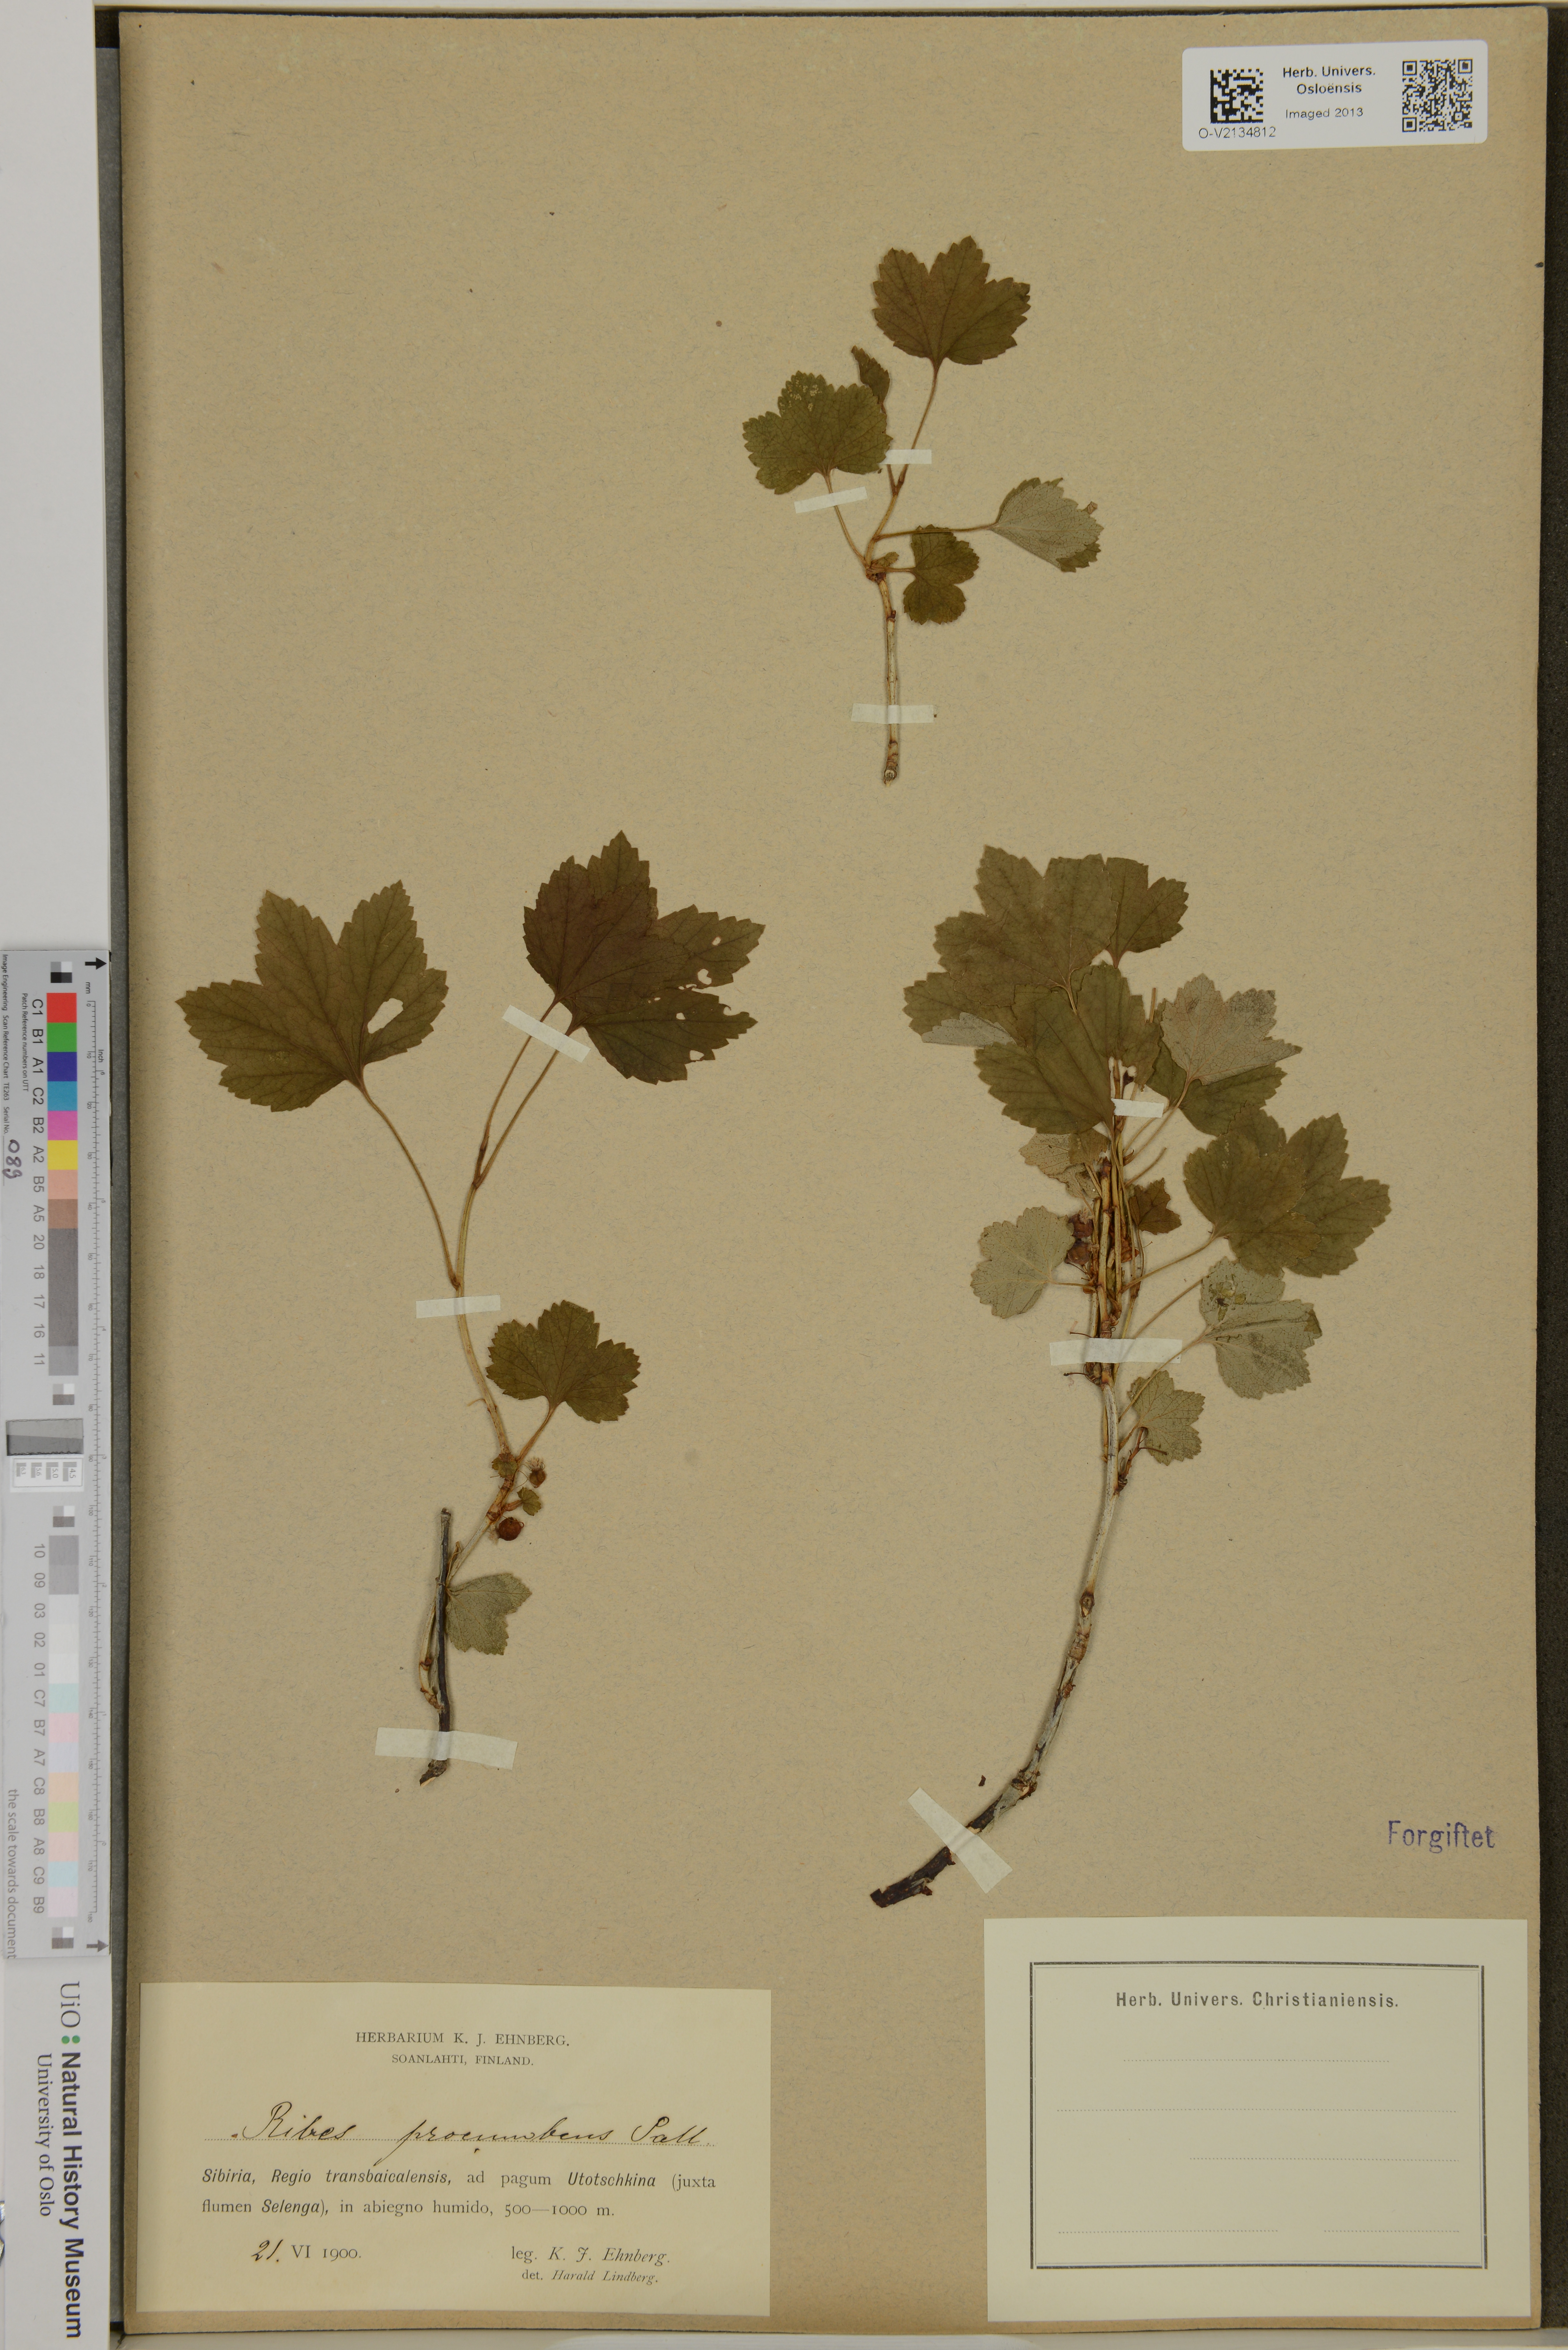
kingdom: Plantae
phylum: Tracheophyta
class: Magnoliopsida
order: Saxifragales
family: Grossulariaceae
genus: Ribes
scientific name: Ribes procumbens
